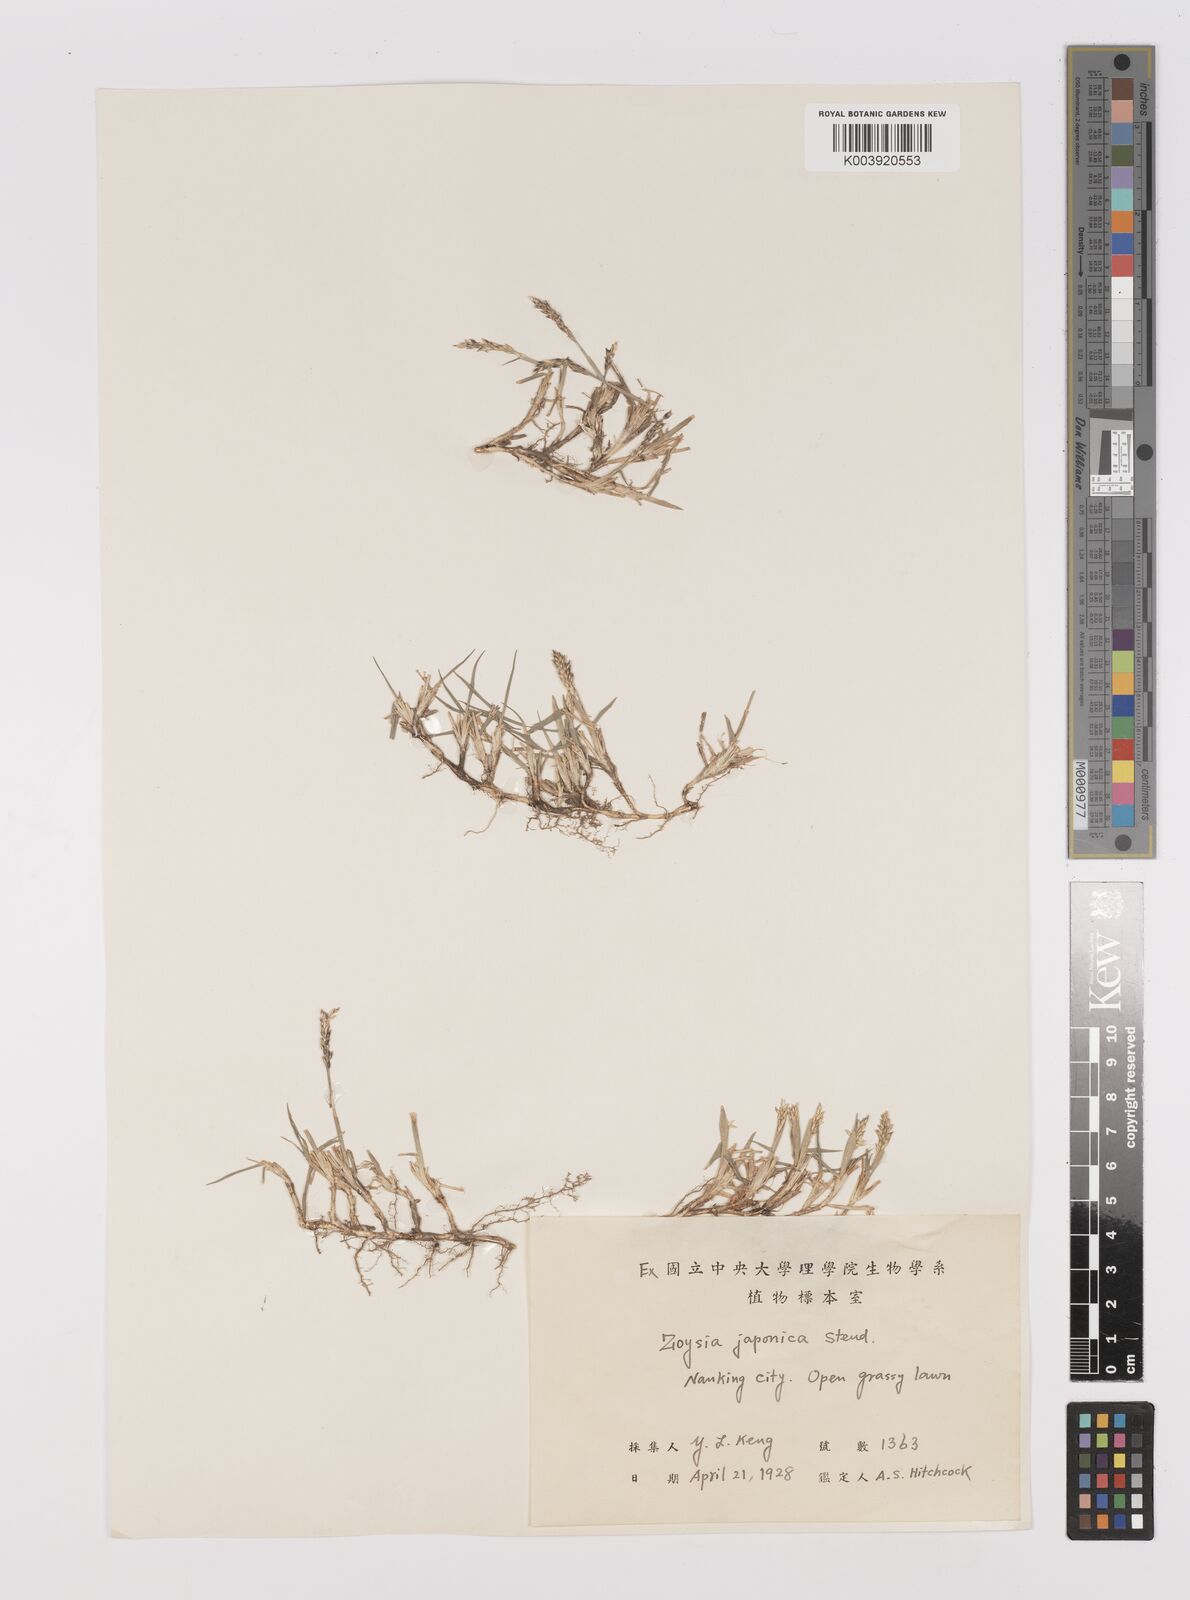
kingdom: Plantae
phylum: Tracheophyta
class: Liliopsida
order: Poales
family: Poaceae
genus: Zoysia
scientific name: Zoysia japonica
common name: Korean lawngrass
